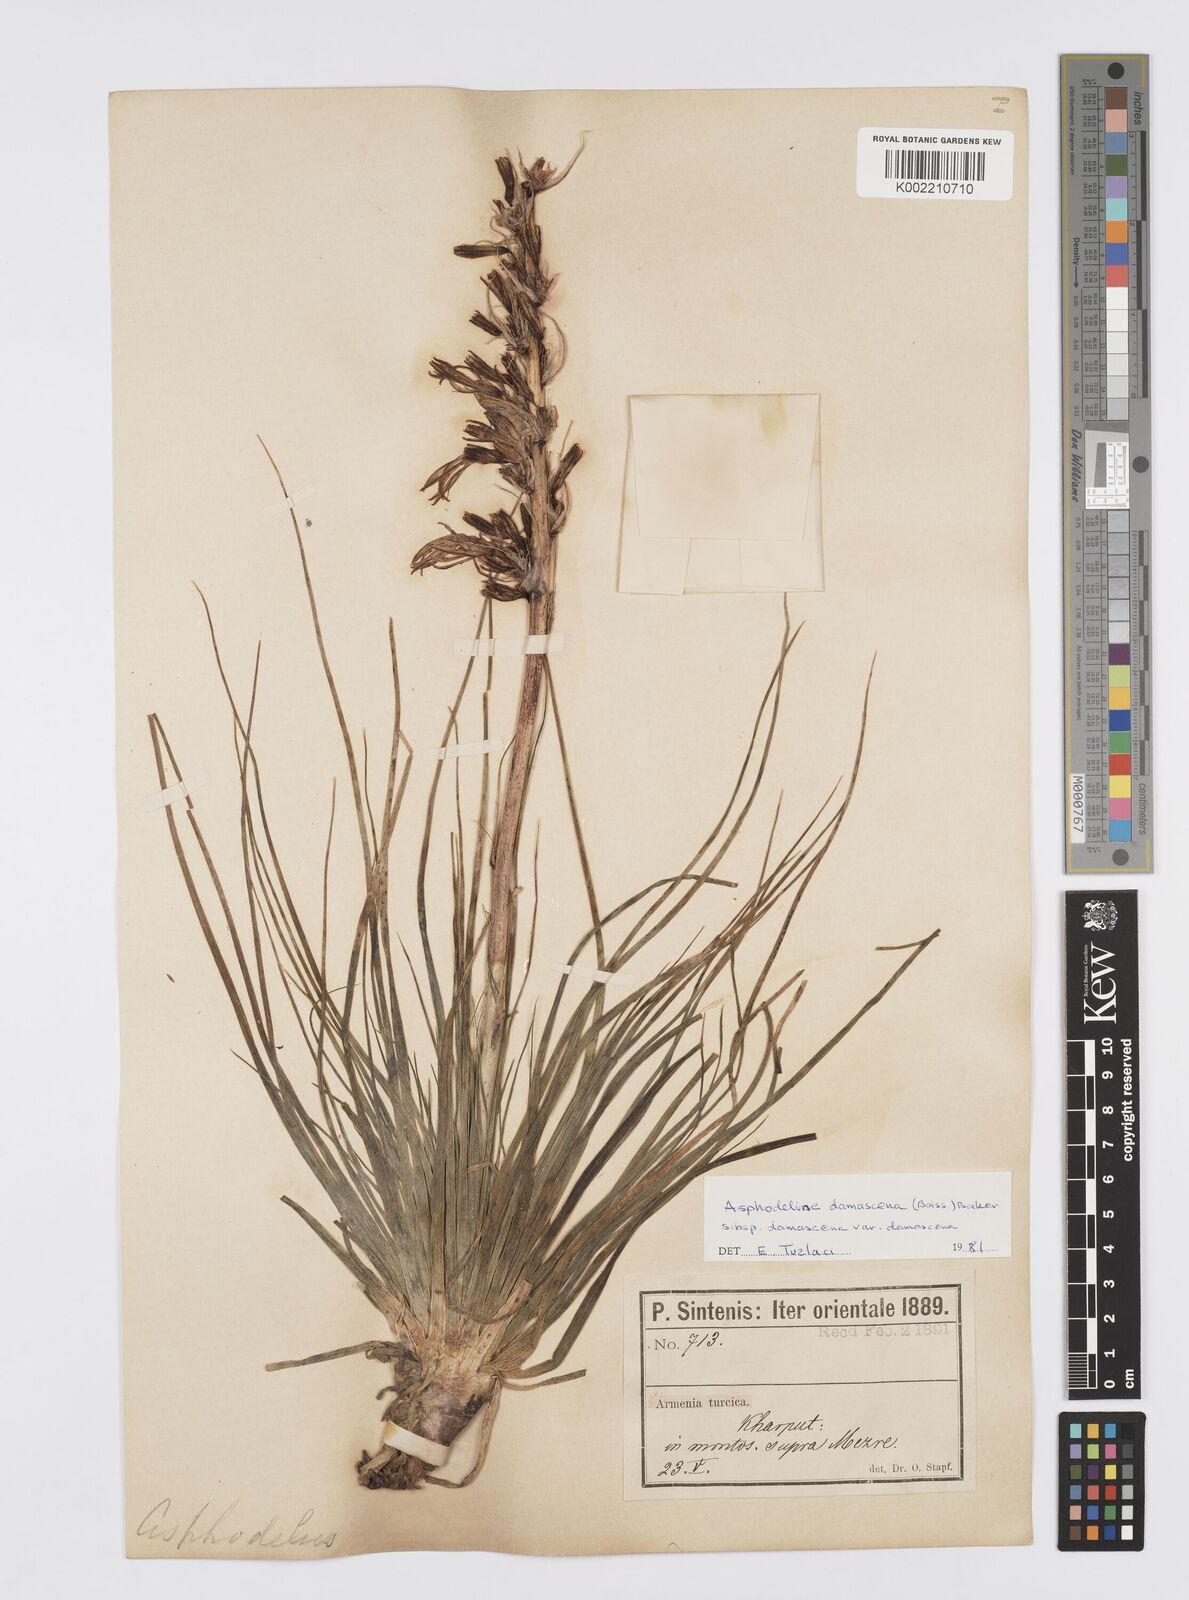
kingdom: Plantae
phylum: Tracheophyta
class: Liliopsida
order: Asparagales
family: Asphodelaceae
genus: Asphodeline
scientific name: Asphodeline damascena
